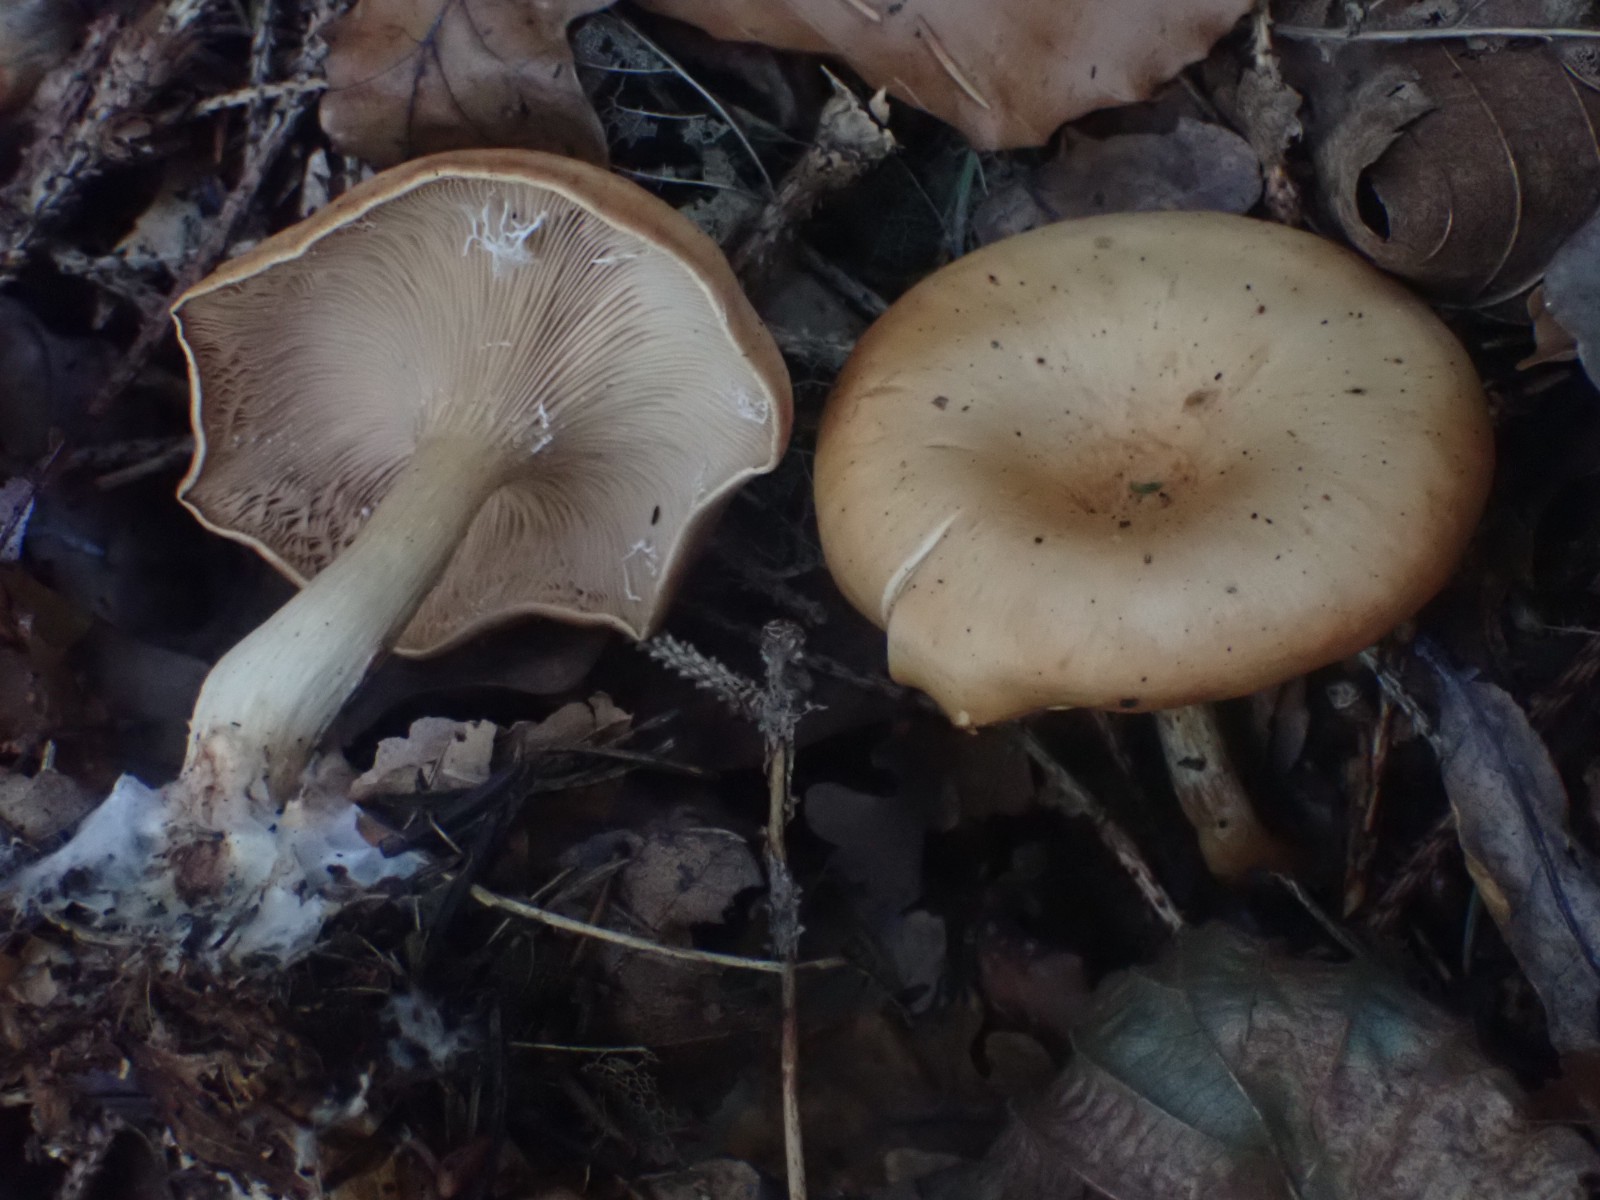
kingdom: Fungi
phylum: Basidiomycota
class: Agaricomycetes
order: Agaricales
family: Tricholomataceae
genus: Paralepista
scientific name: Paralepista flaccida
